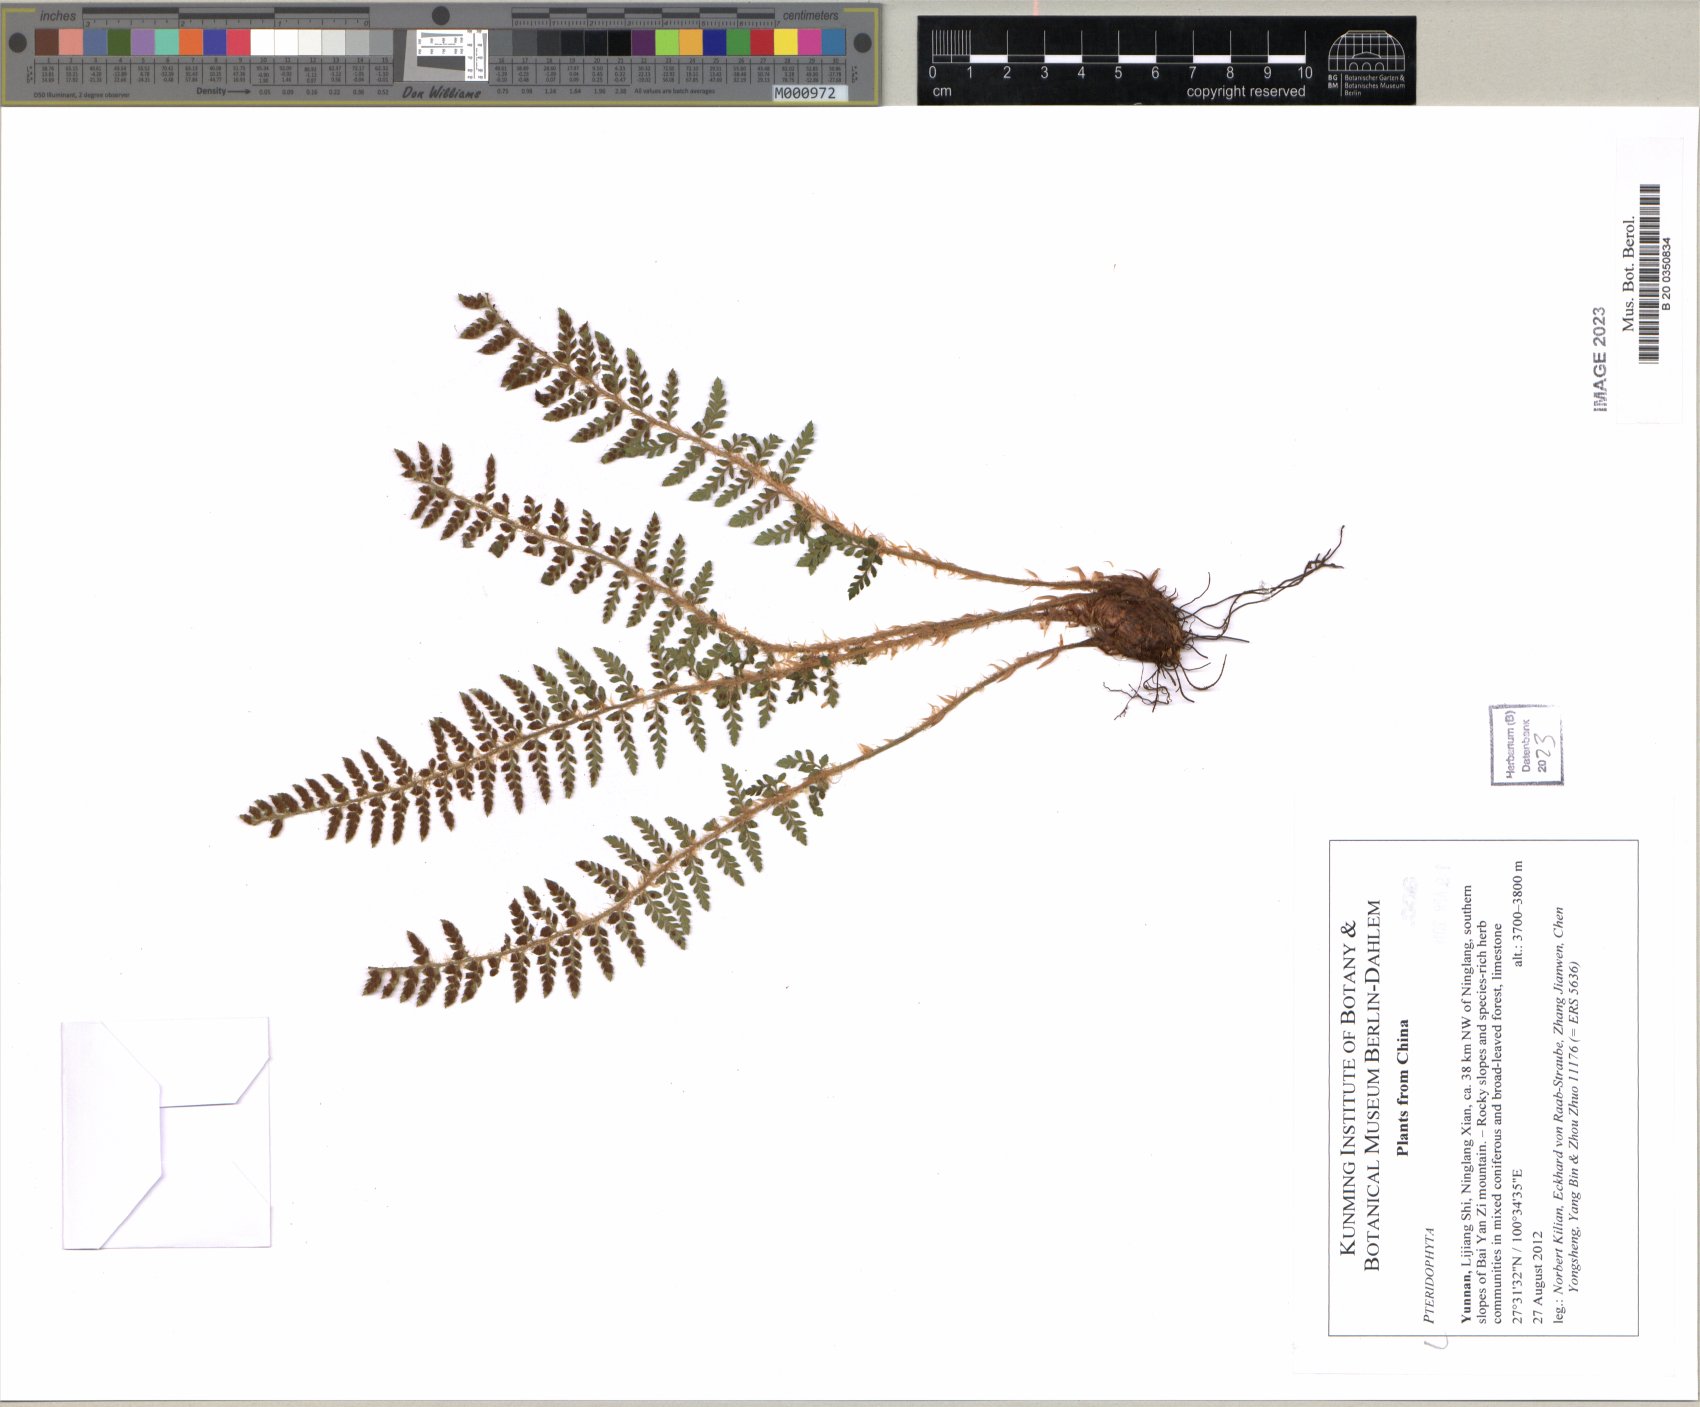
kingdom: Plantae
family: Pteridophyta
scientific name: Pteridophyta
